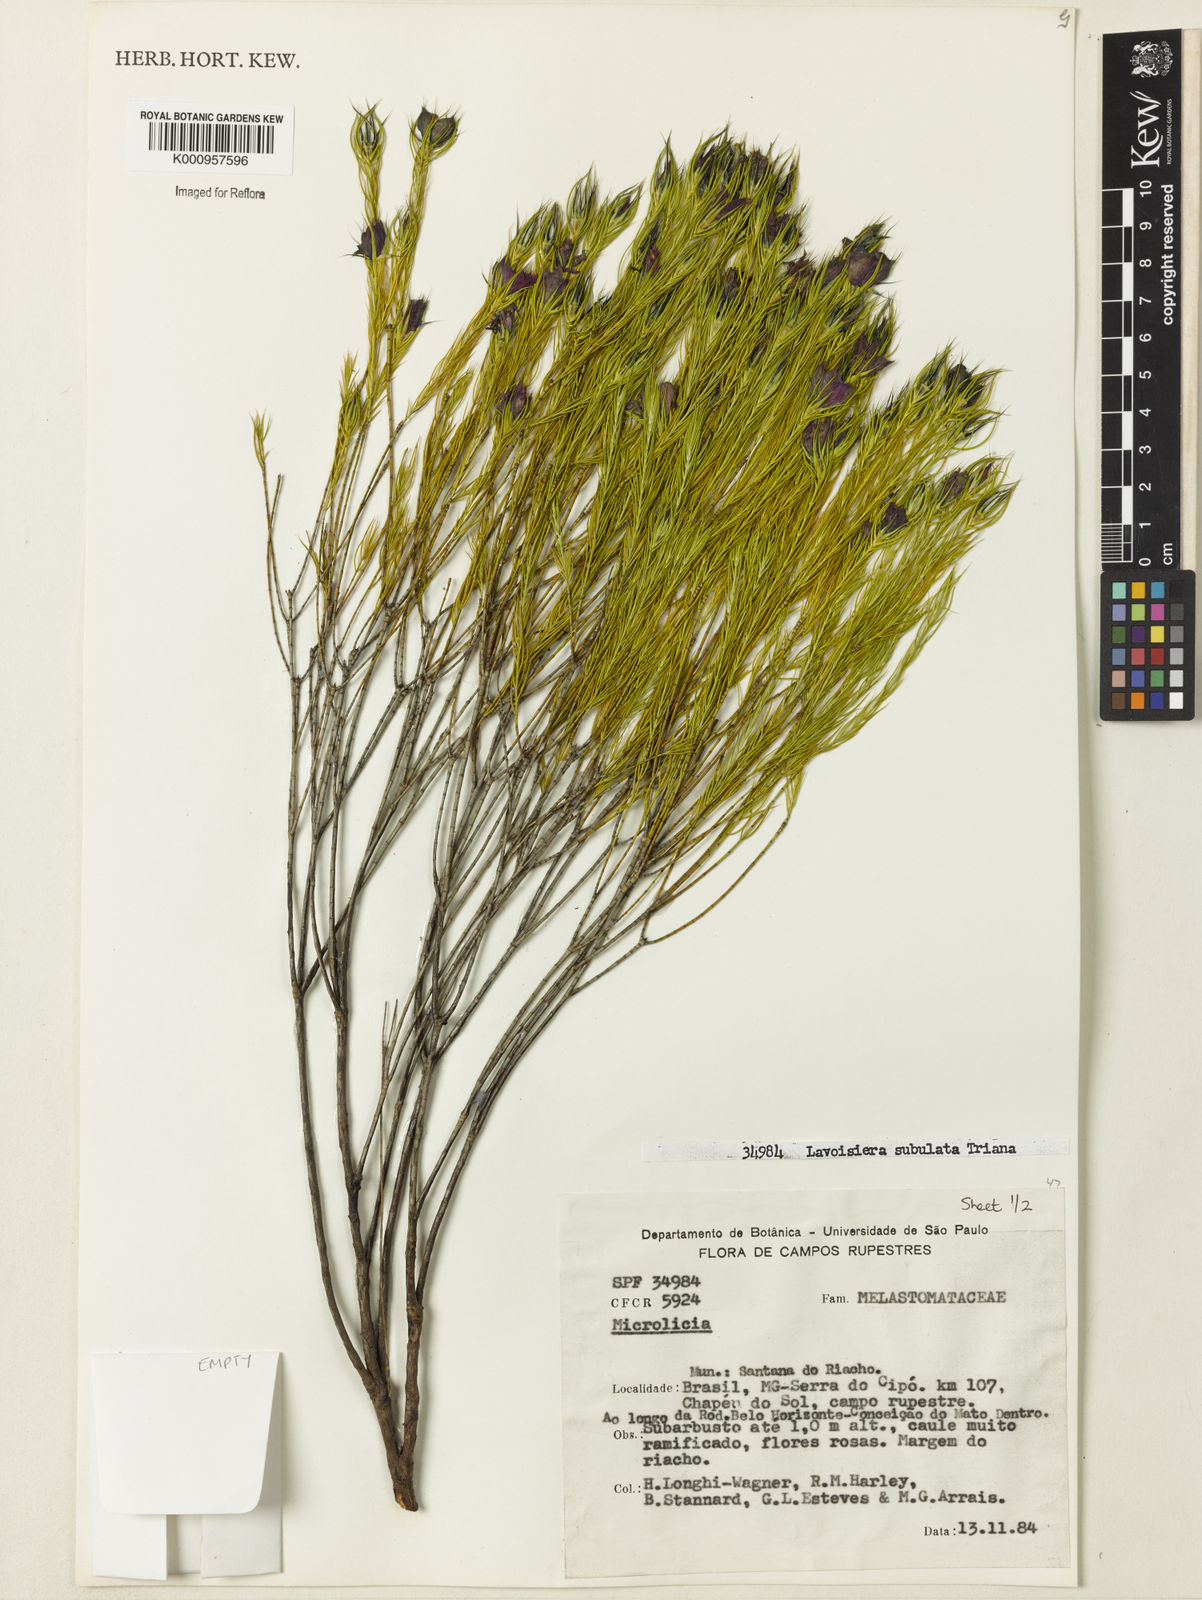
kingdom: Plantae
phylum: Tracheophyta
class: Magnoliopsida
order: Myrtales
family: Melastomataceae
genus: Microlicia
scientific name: Microlicia subulata
